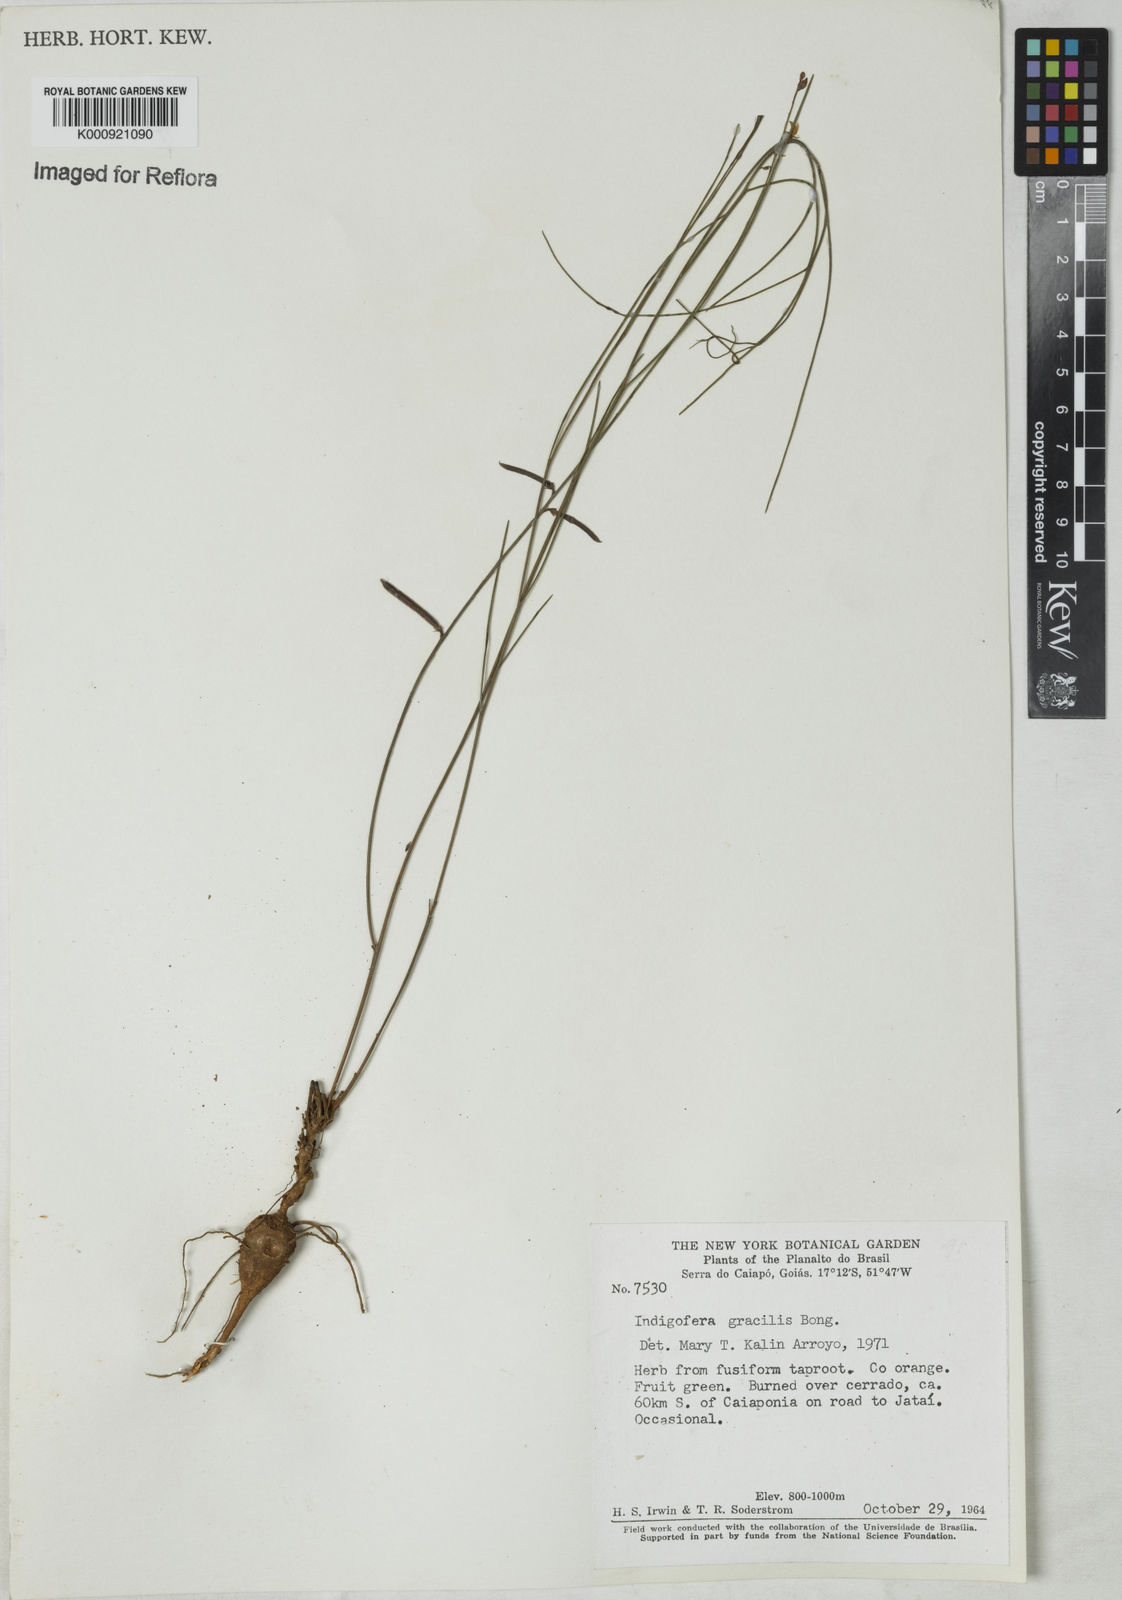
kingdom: Plantae
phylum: Tracheophyta
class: Magnoliopsida
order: Fabales
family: Fabaceae
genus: Indigofera
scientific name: Indigofera bongardiana
